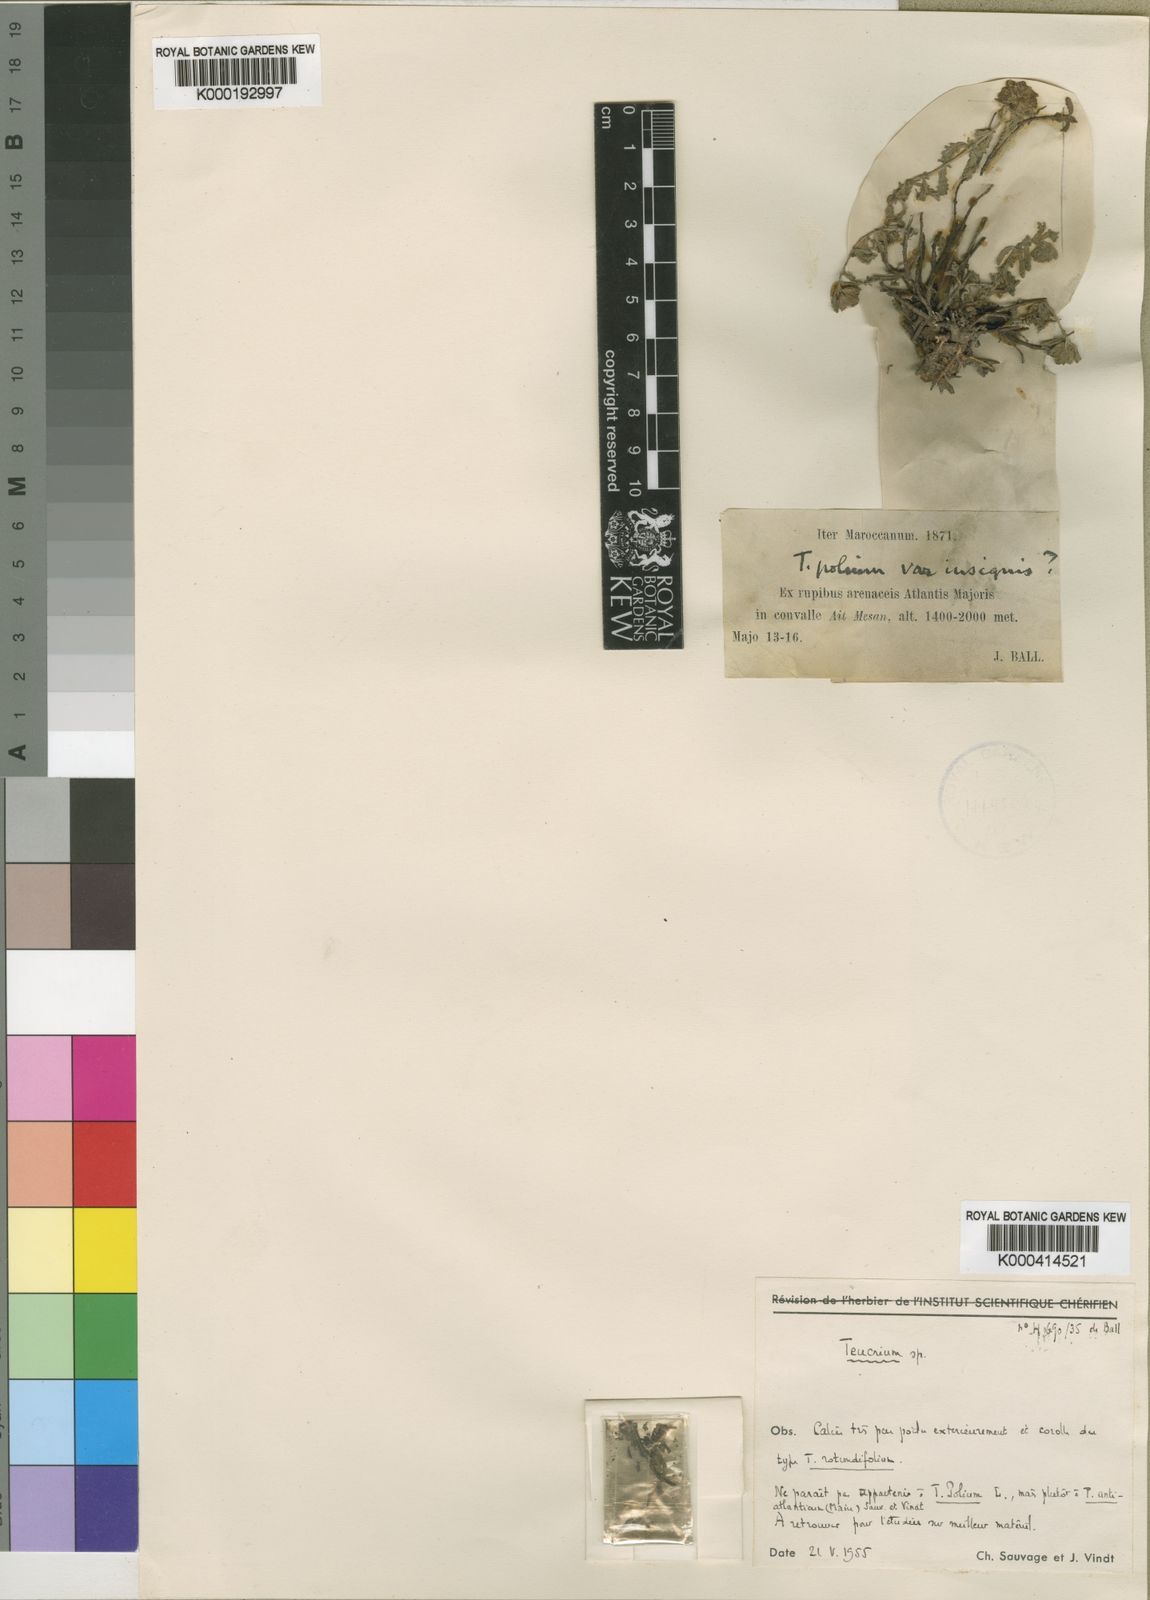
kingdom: Plantae
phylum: Tracheophyta
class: Magnoliopsida
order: Lamiales
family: Lamiaceae
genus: Teucrium
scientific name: Teucrium polium
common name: Poley
